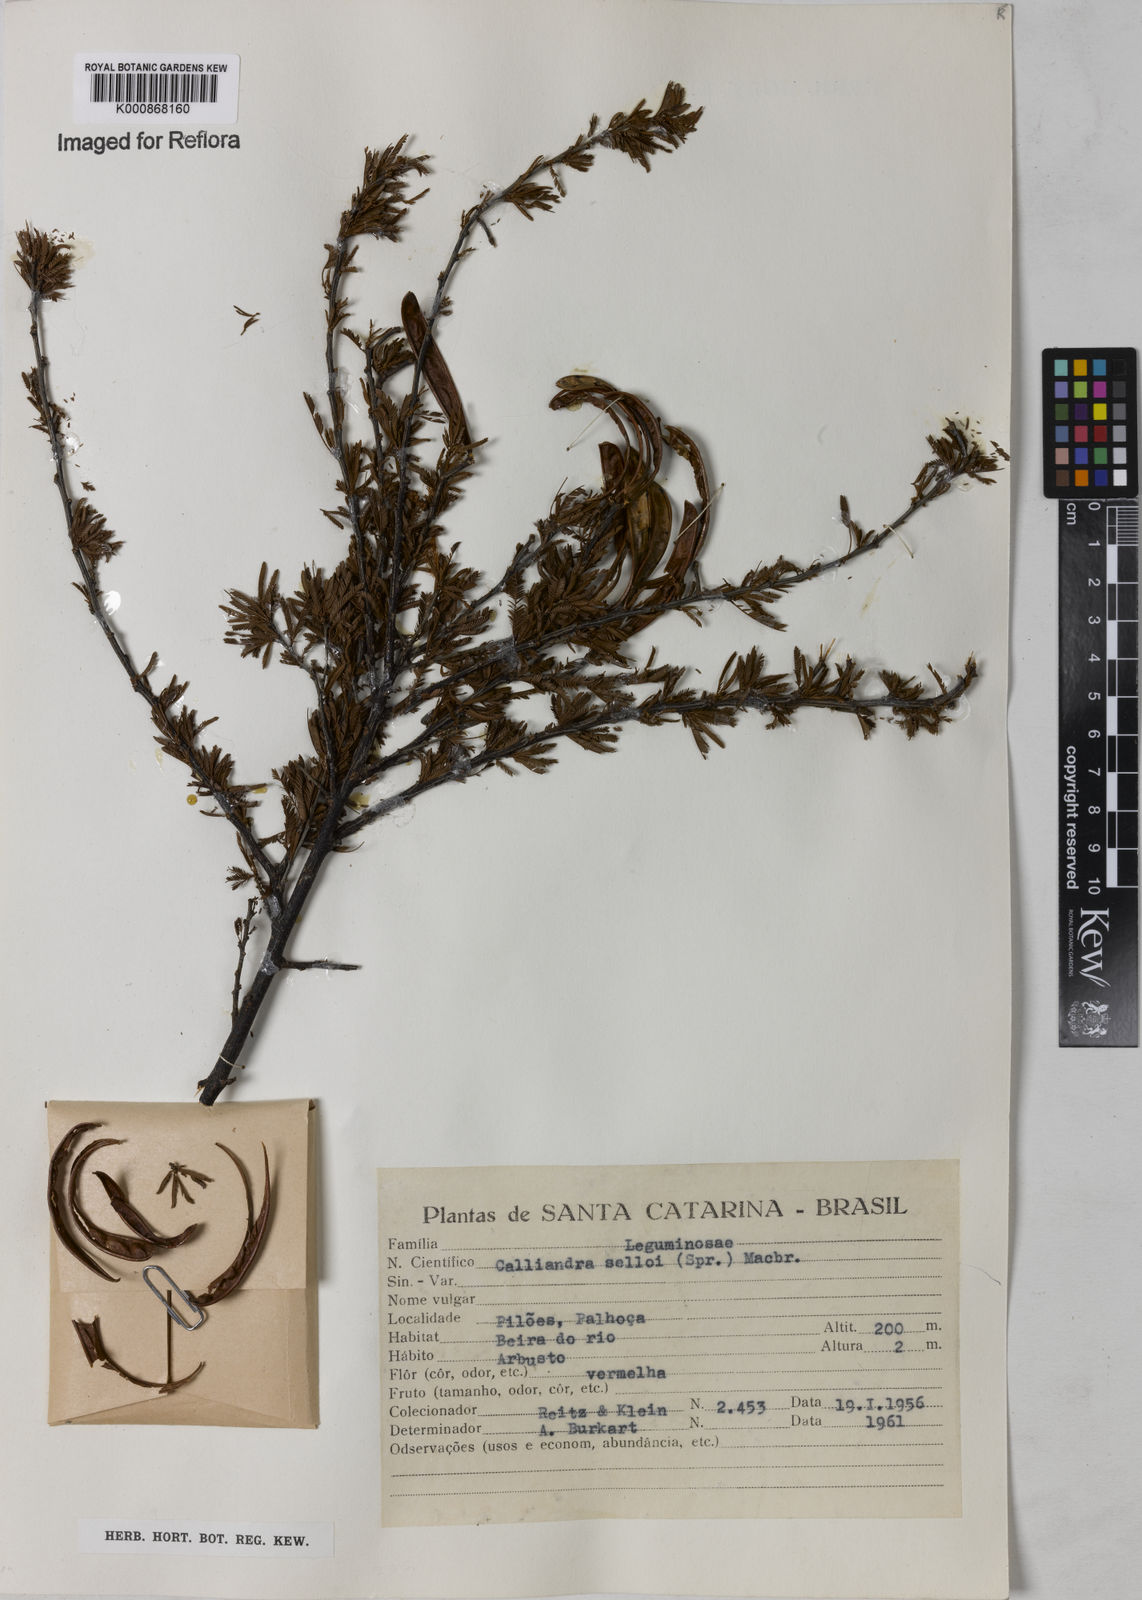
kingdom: Plantae
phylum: Tracheophyta
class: Magnoliopsida
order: Fabales
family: Fabaceae
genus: Calliandra
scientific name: Calliandra selloi
